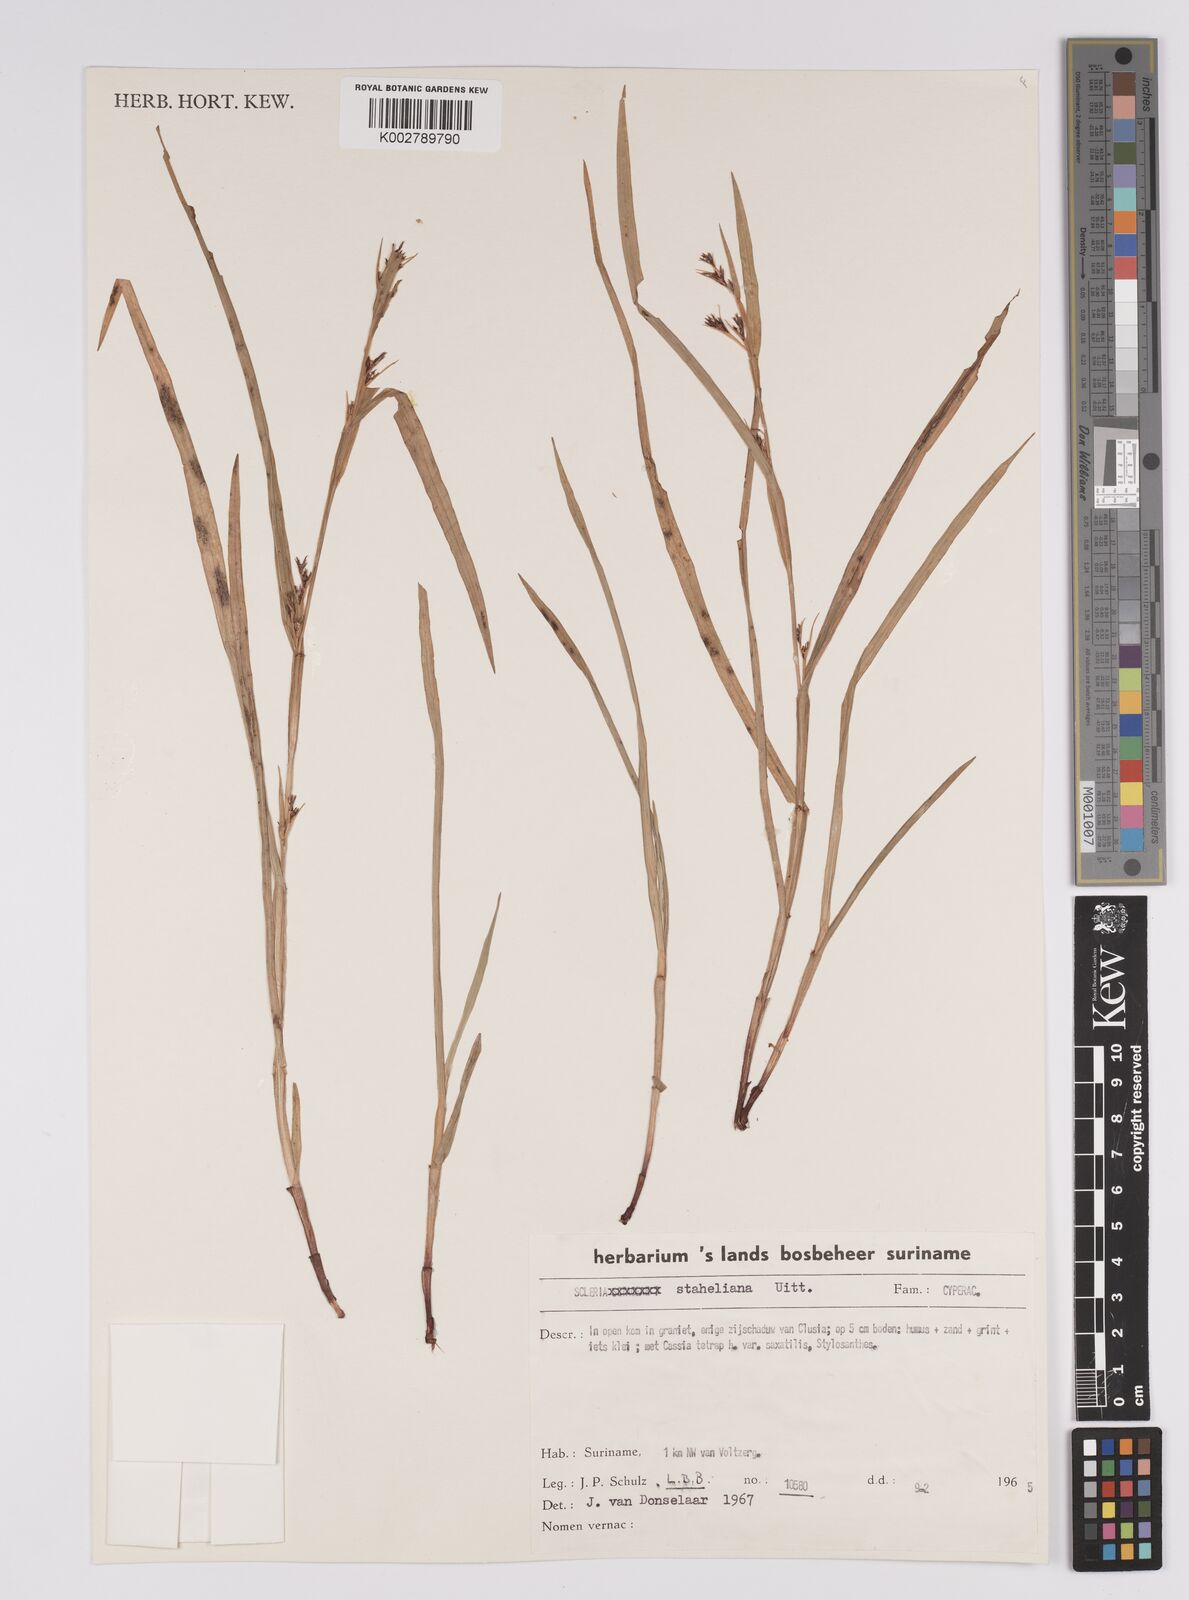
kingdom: Plantae
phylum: Tracheophyta
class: Liliopsida
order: Poales
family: Cyperaceae
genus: Scleria
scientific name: Scleria staheliana
